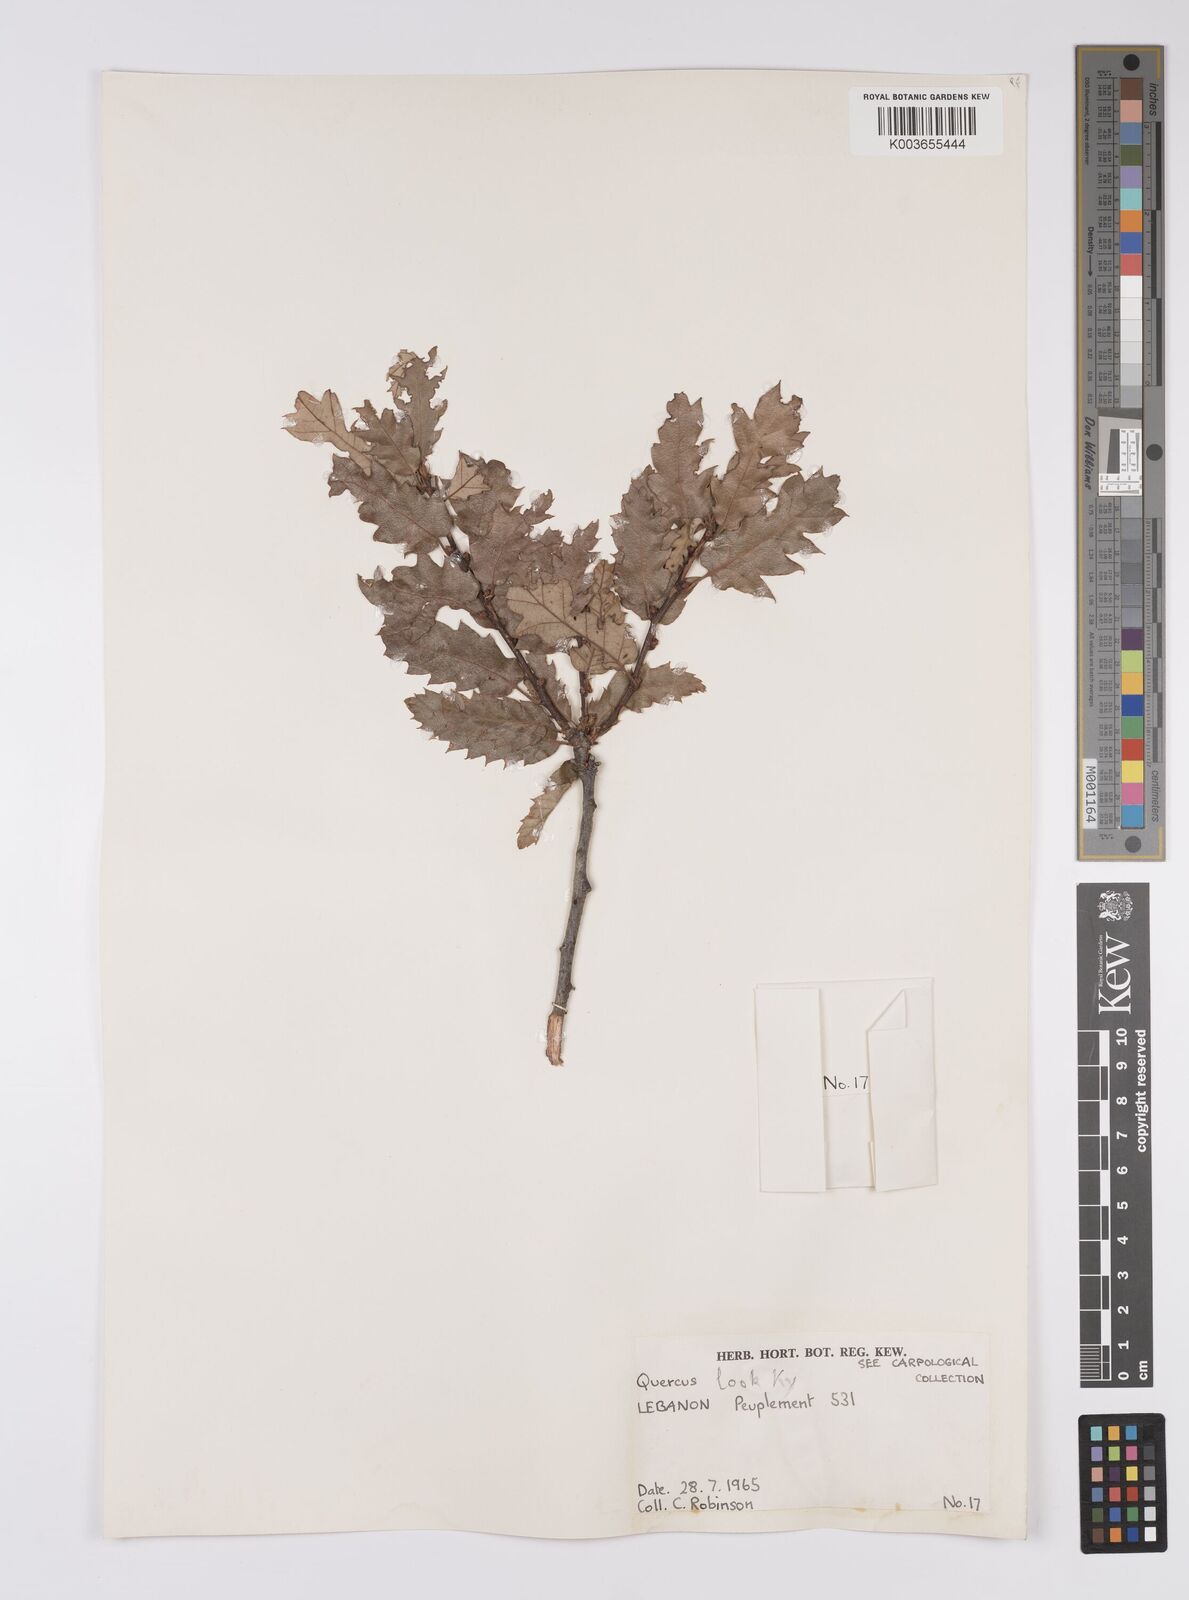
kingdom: Plantae
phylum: Tracheophyta
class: Magnoliopsida
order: Fagales
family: Fagaceae
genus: Quercus
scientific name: Quercus look
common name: Look oak
